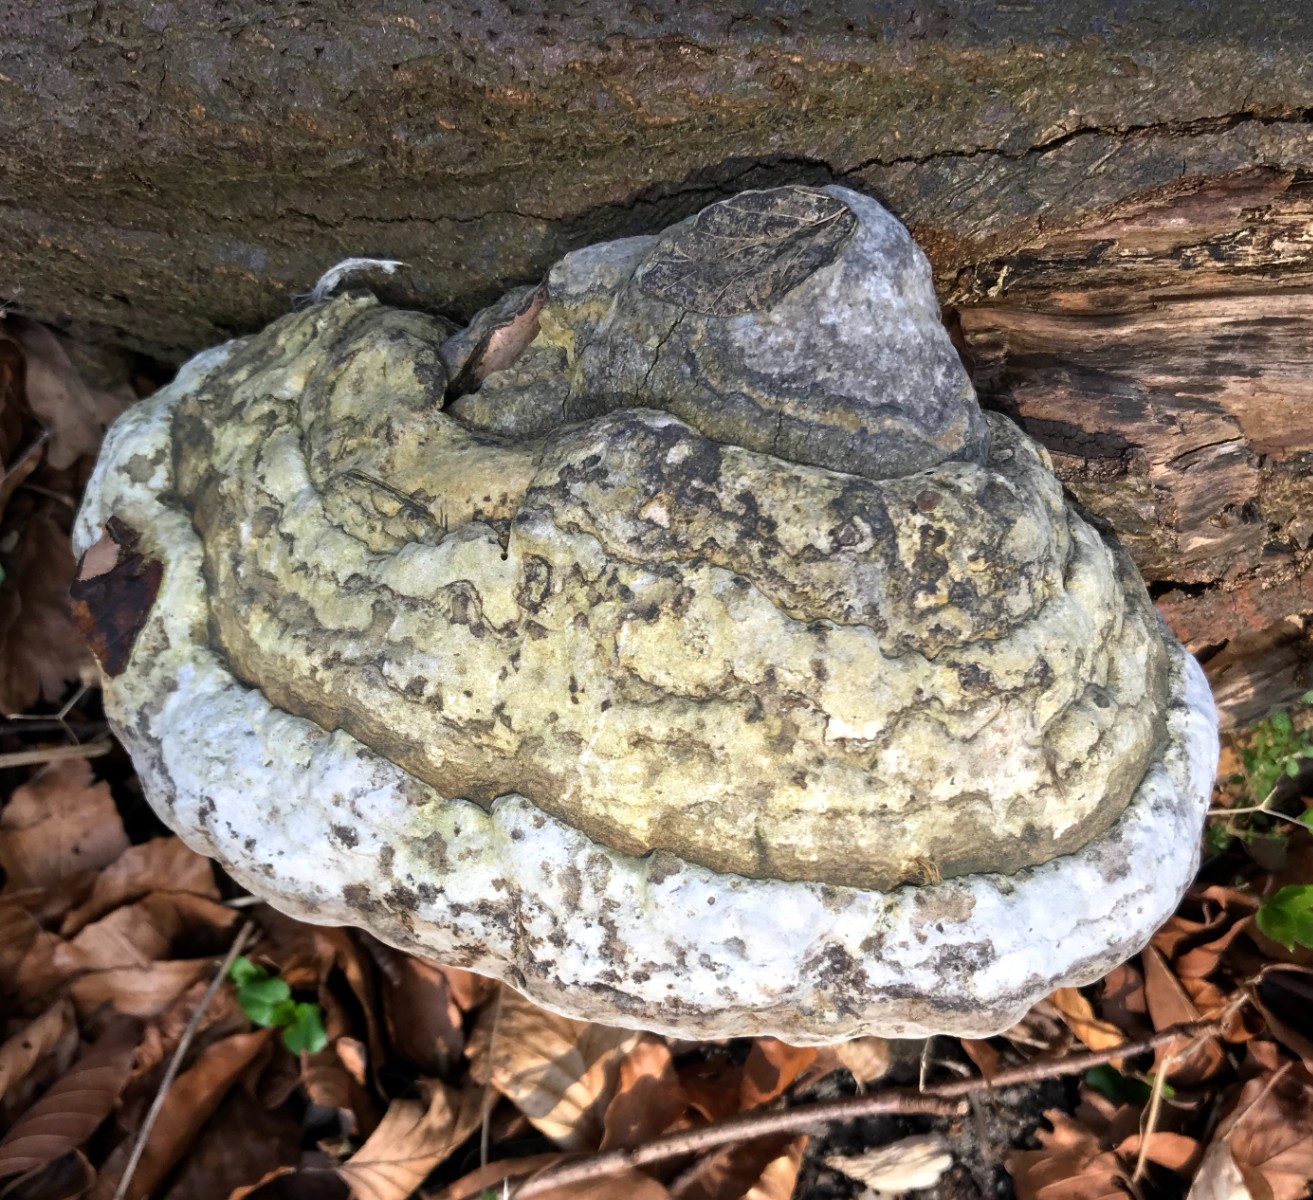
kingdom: Fungi
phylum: Basidiomycota
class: Agaricomycetes
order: Polyporales
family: Polyporaceae
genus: Fomes
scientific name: Fomes fomentarius
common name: tøndersvamp
